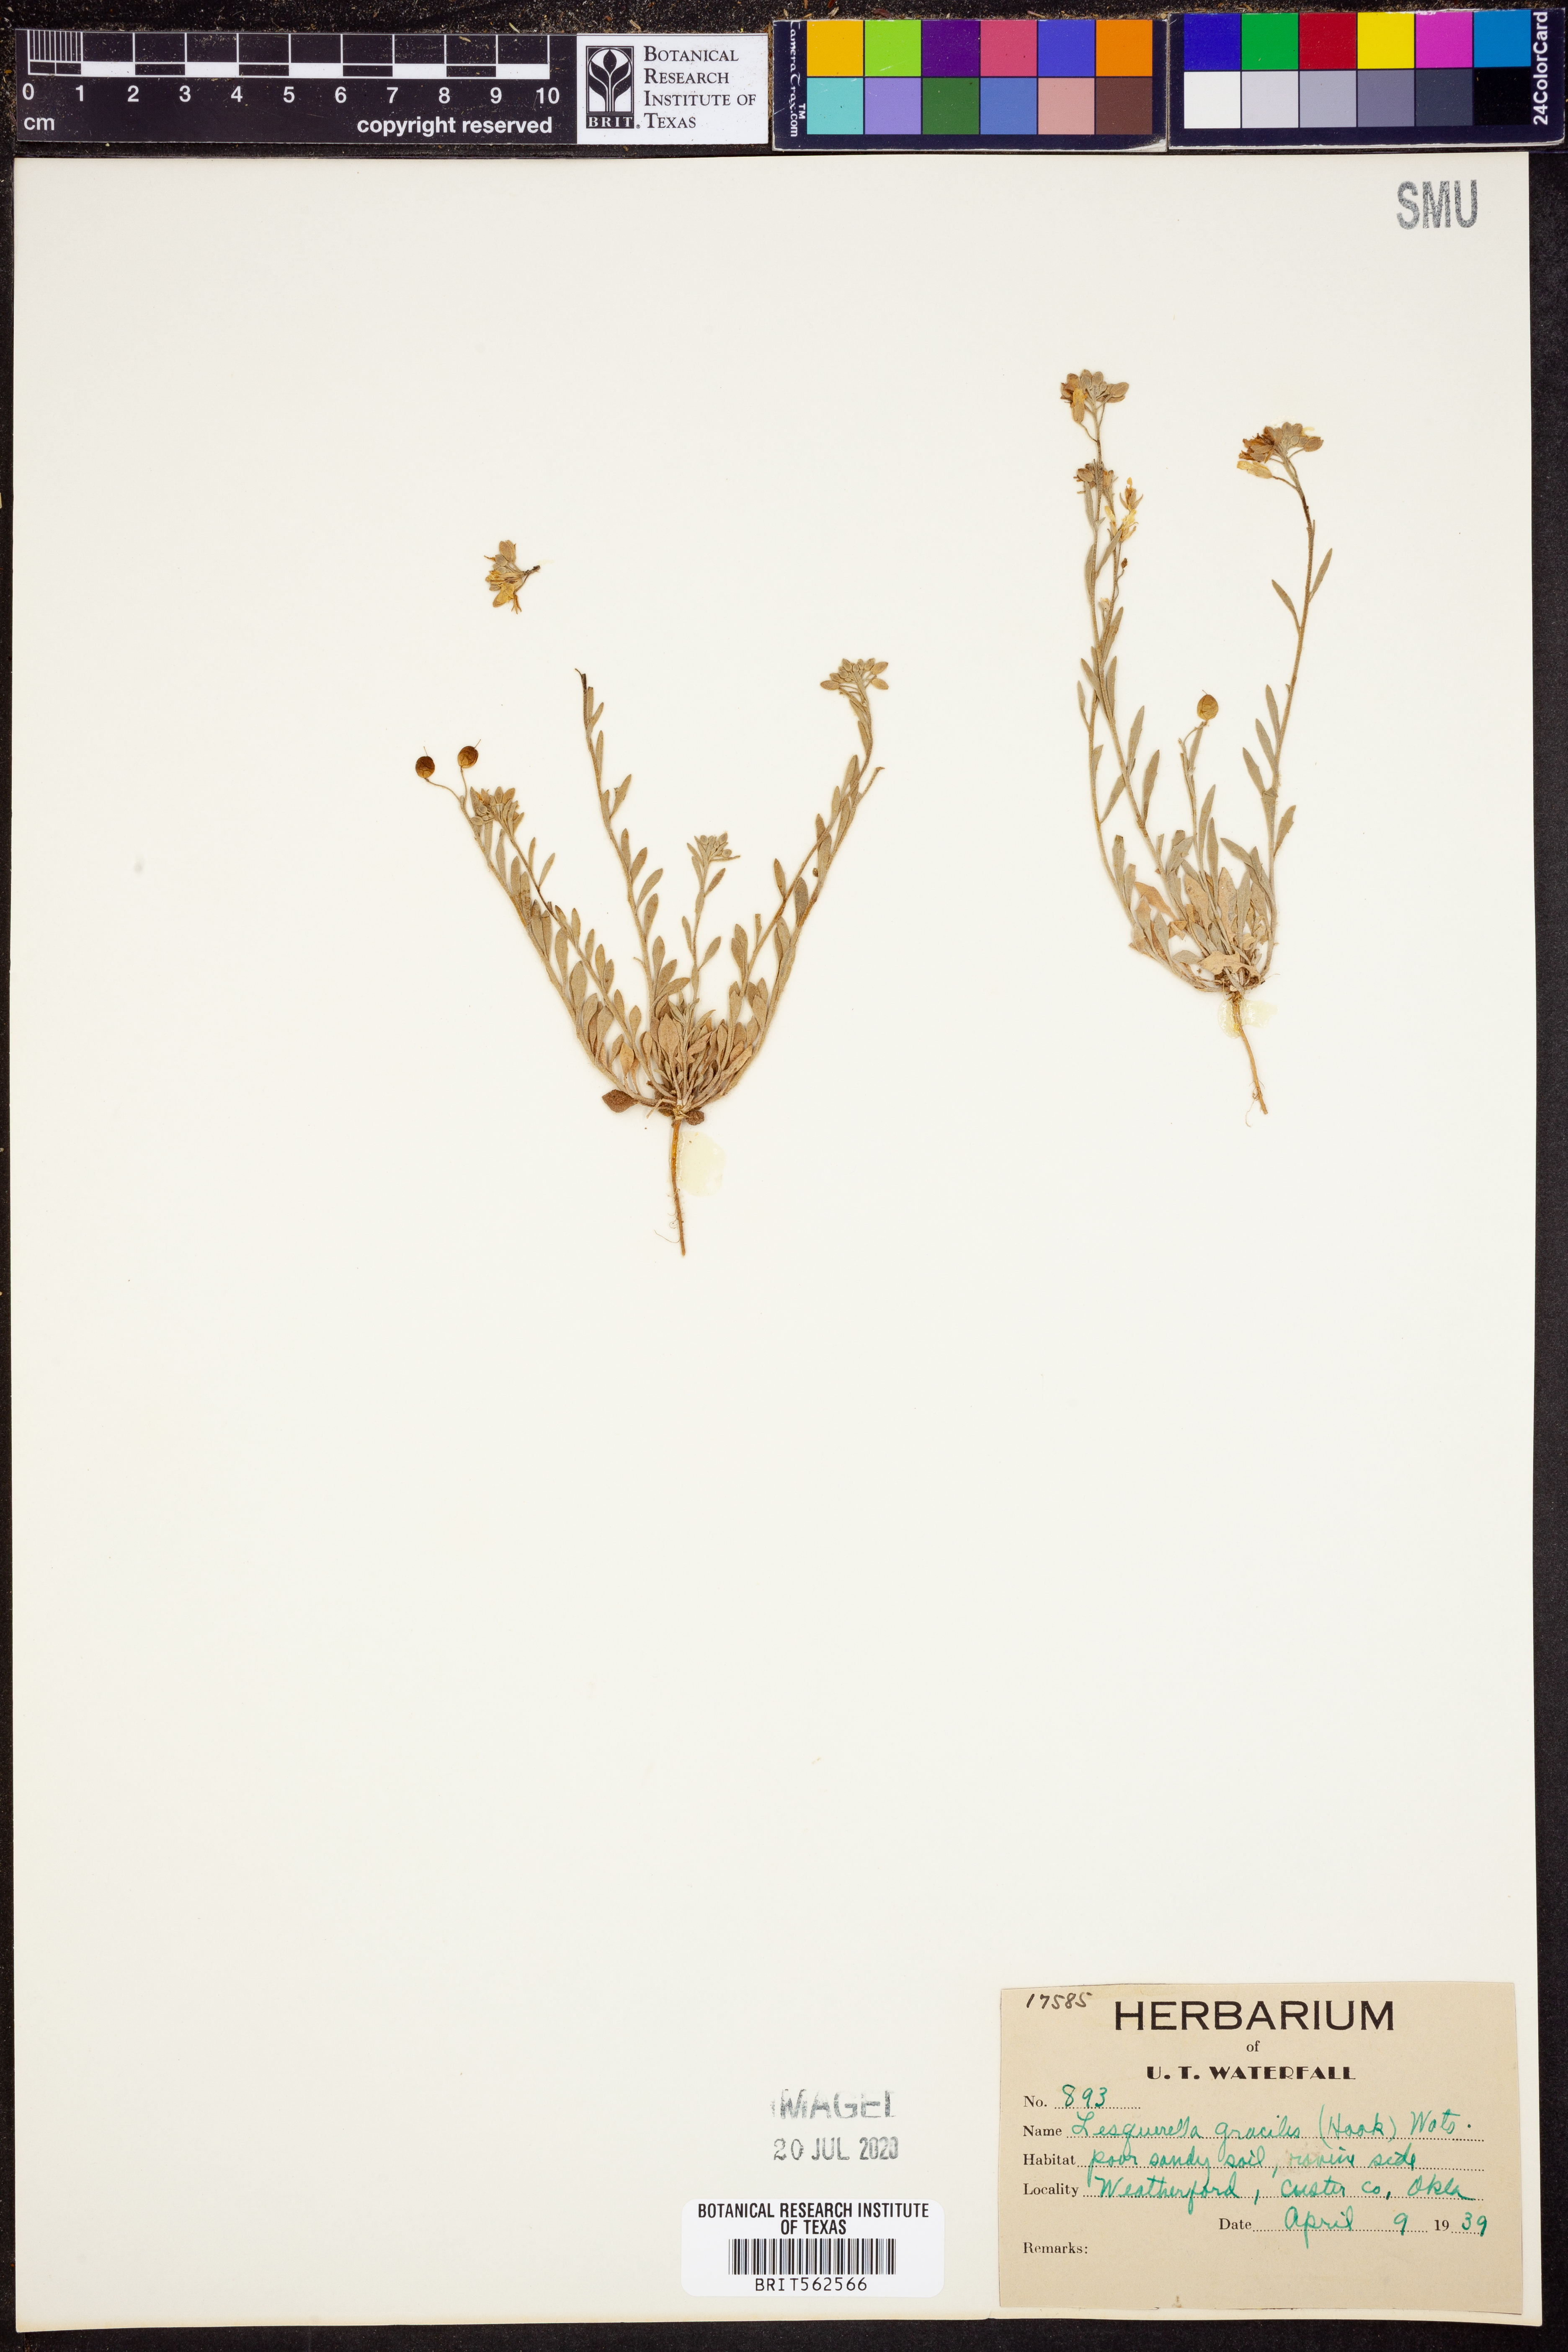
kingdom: Plantae
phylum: Tracheophyta
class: Magnoliopsida
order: Brassicales
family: Brassicaceae
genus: Physaria
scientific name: Physaria gracilis
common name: Spreading bladderpod
